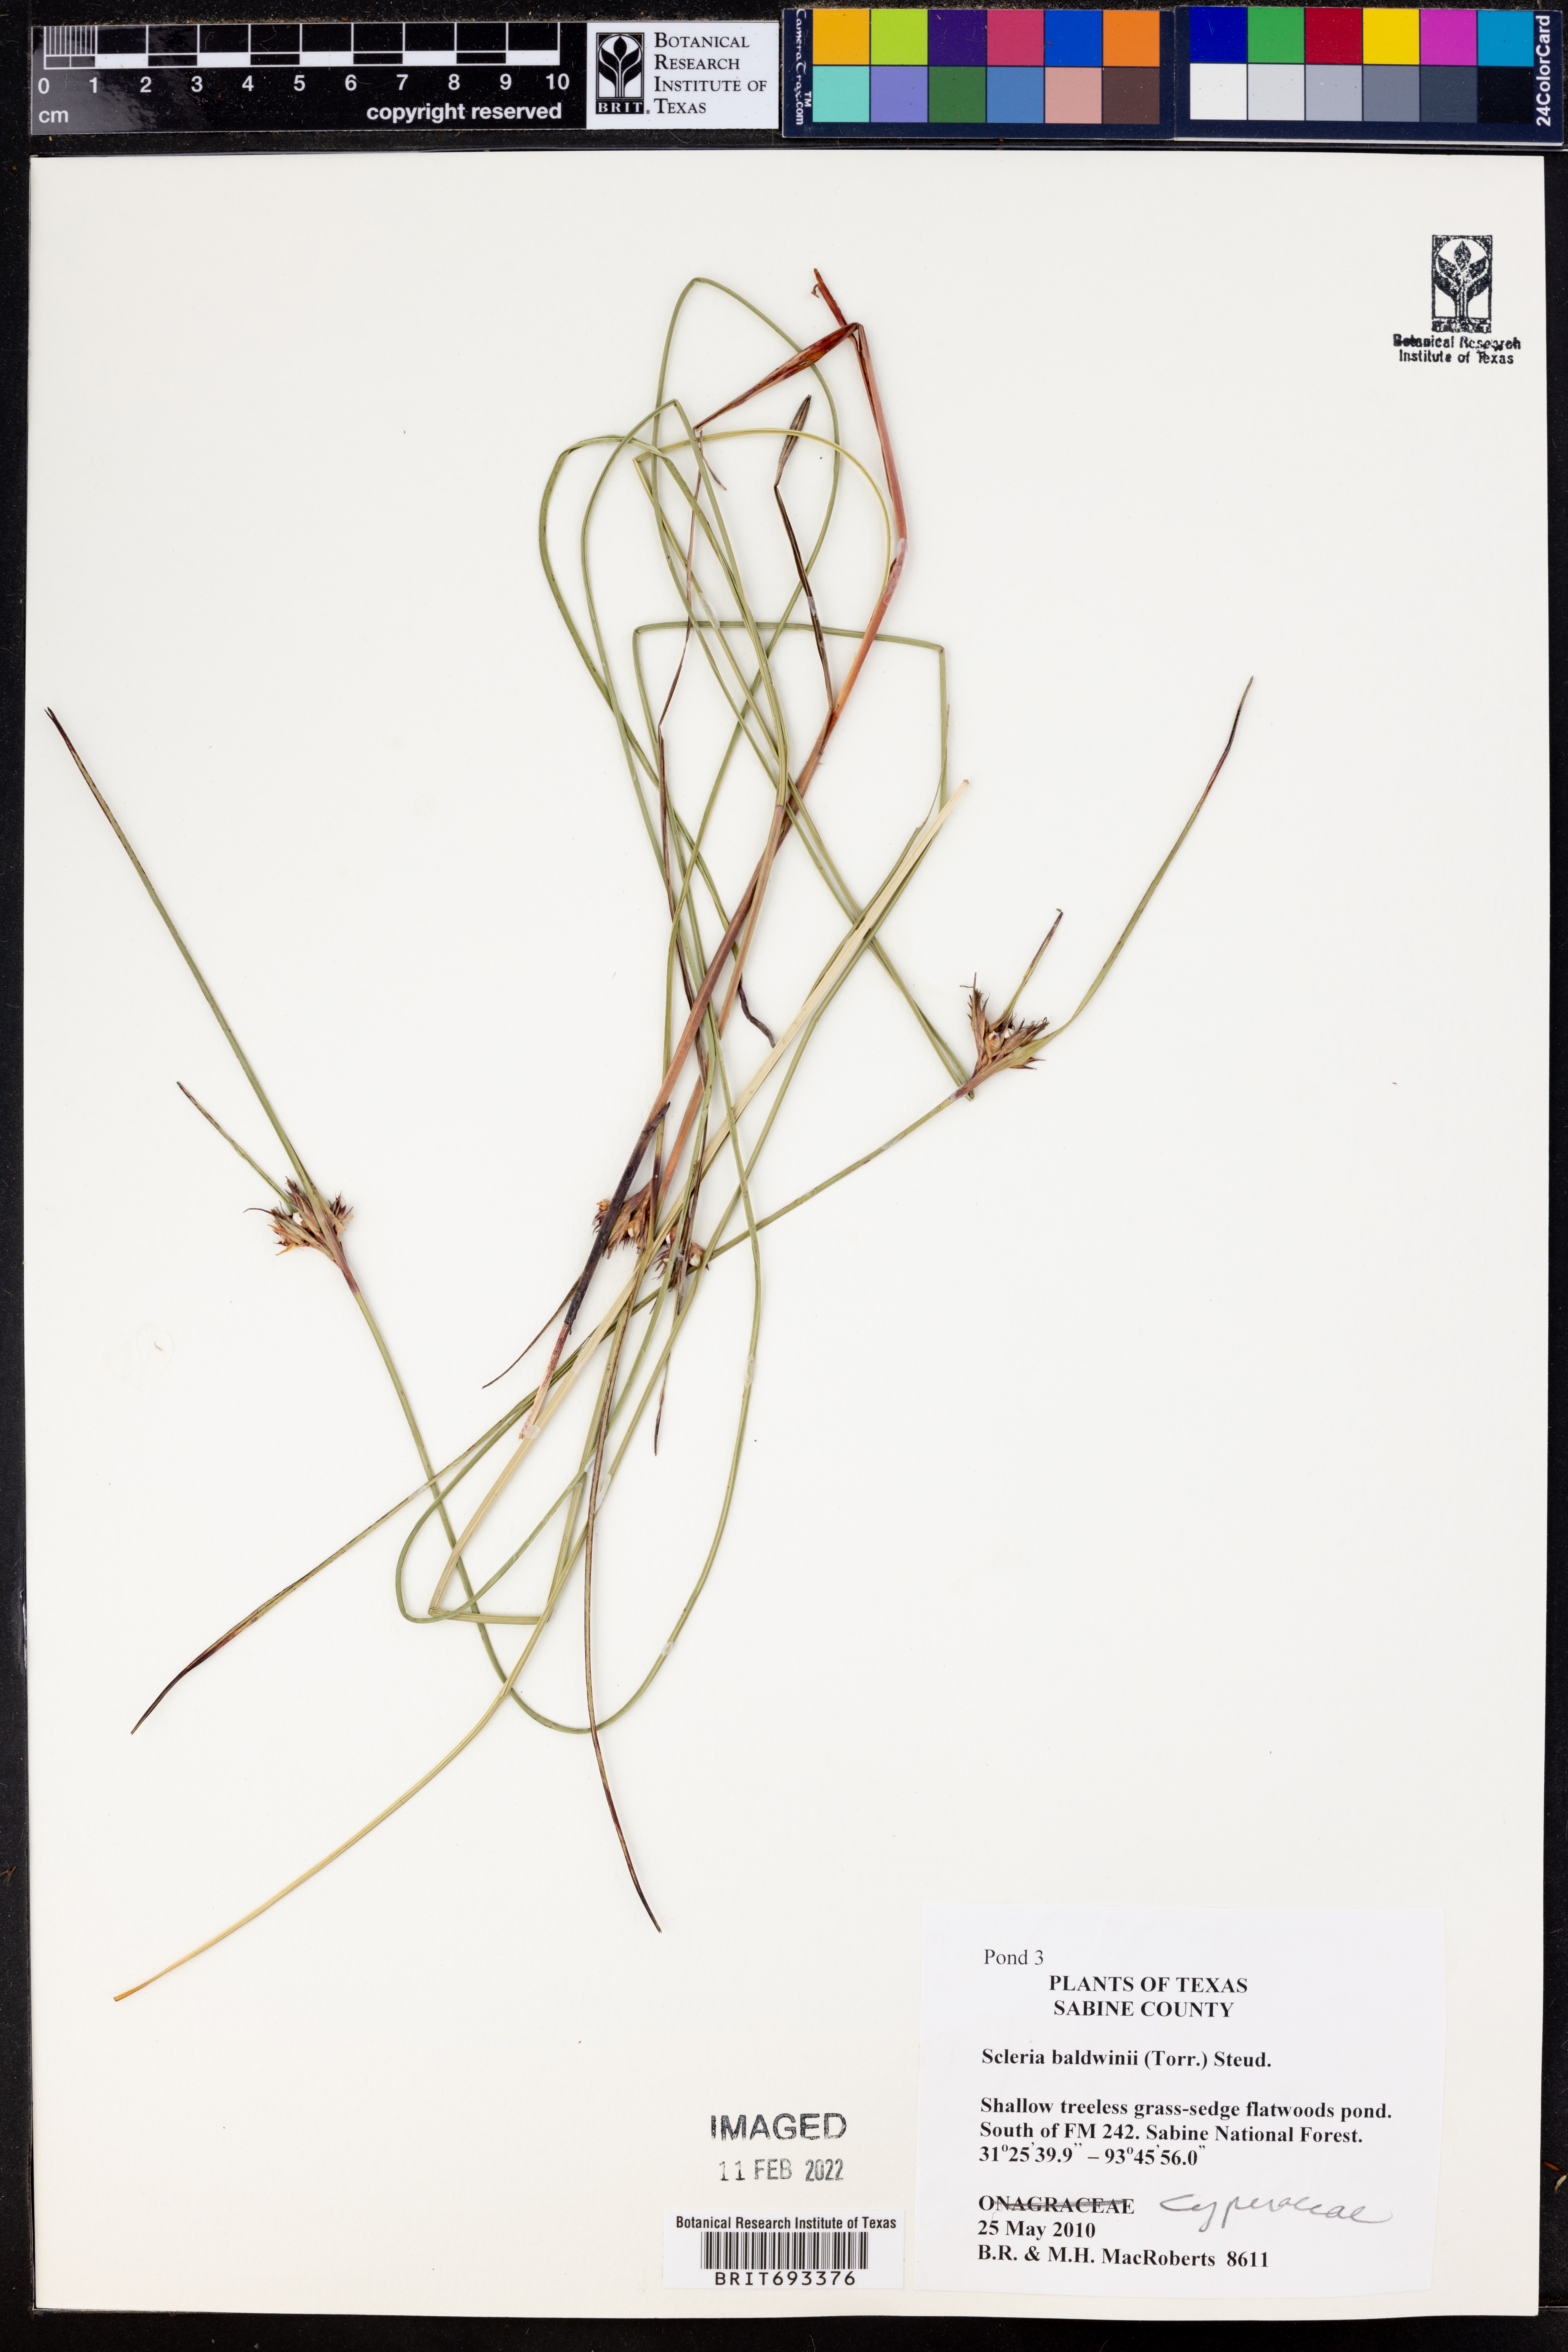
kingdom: Plantae
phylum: Tracheophyta
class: Liliopsida
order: Poales
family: Cyperaceae
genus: Scleria
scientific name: Scleria baldwinii
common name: Baldwin's nutrush
